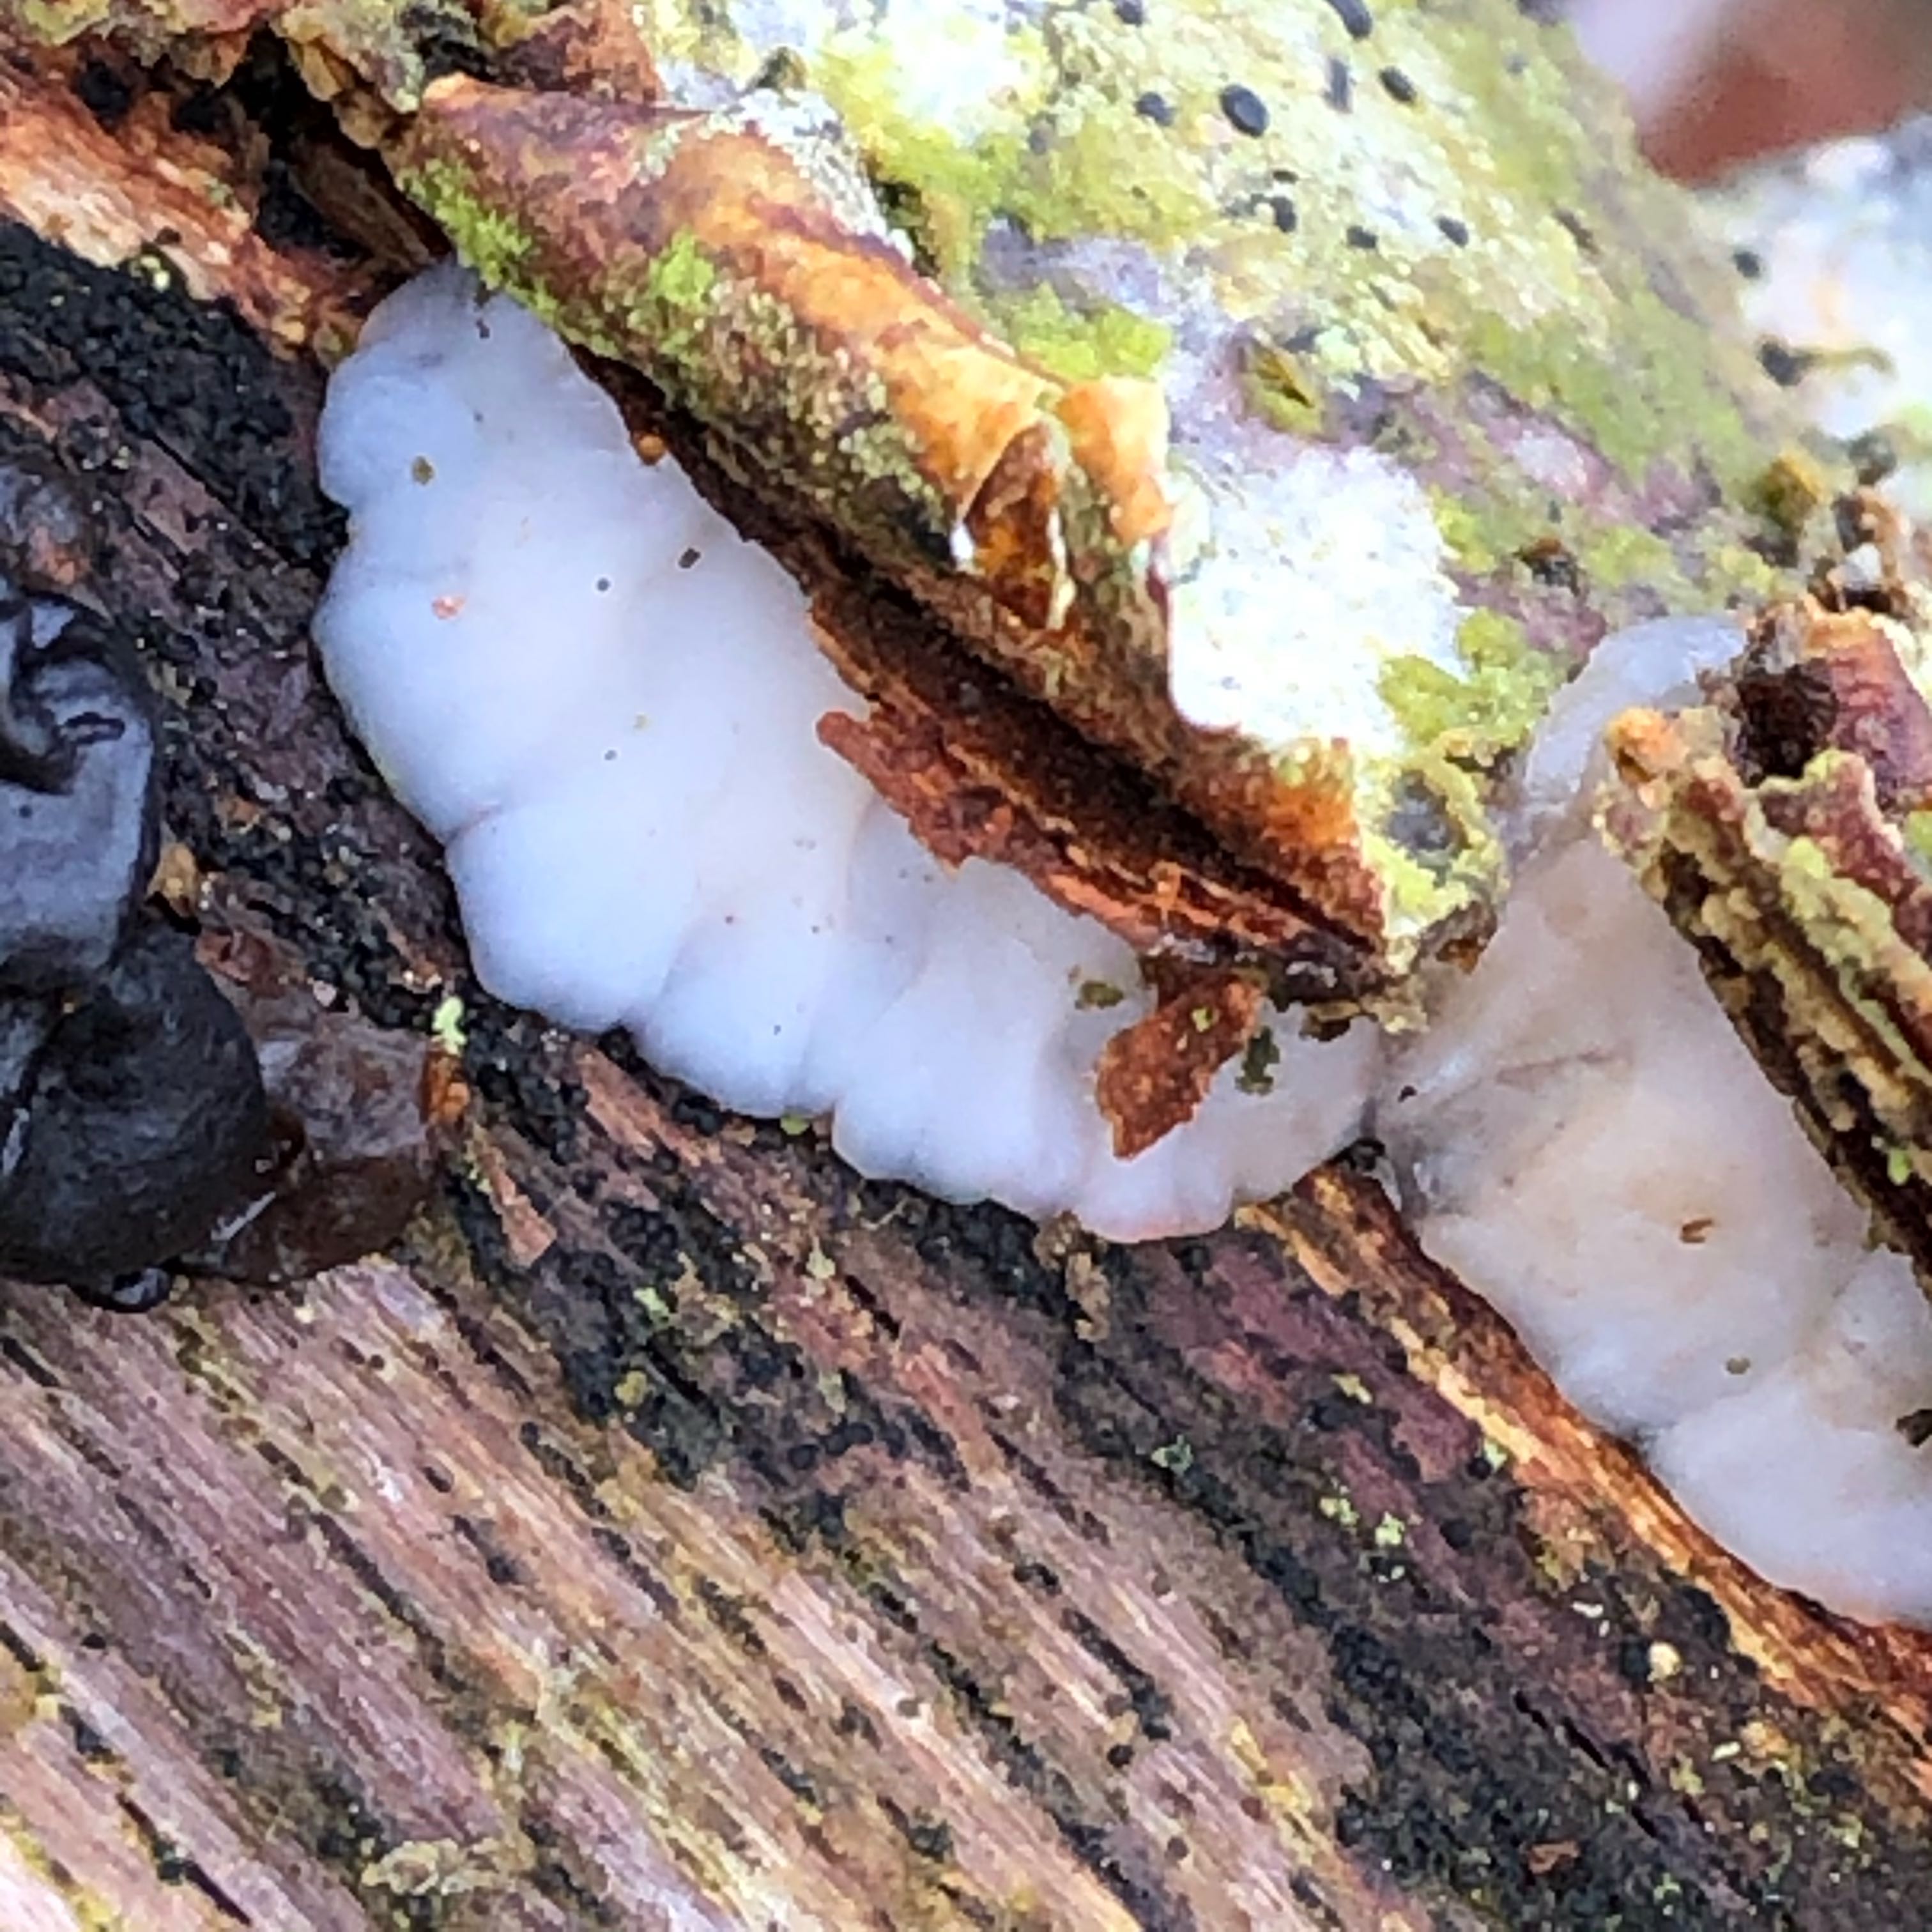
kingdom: Fungi
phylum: Basidiomycota
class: Agaricomycetes
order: Auriculariales
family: Auriculariaceae
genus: Exidia
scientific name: Exidia thuretiana
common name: hvidlig bævretop
